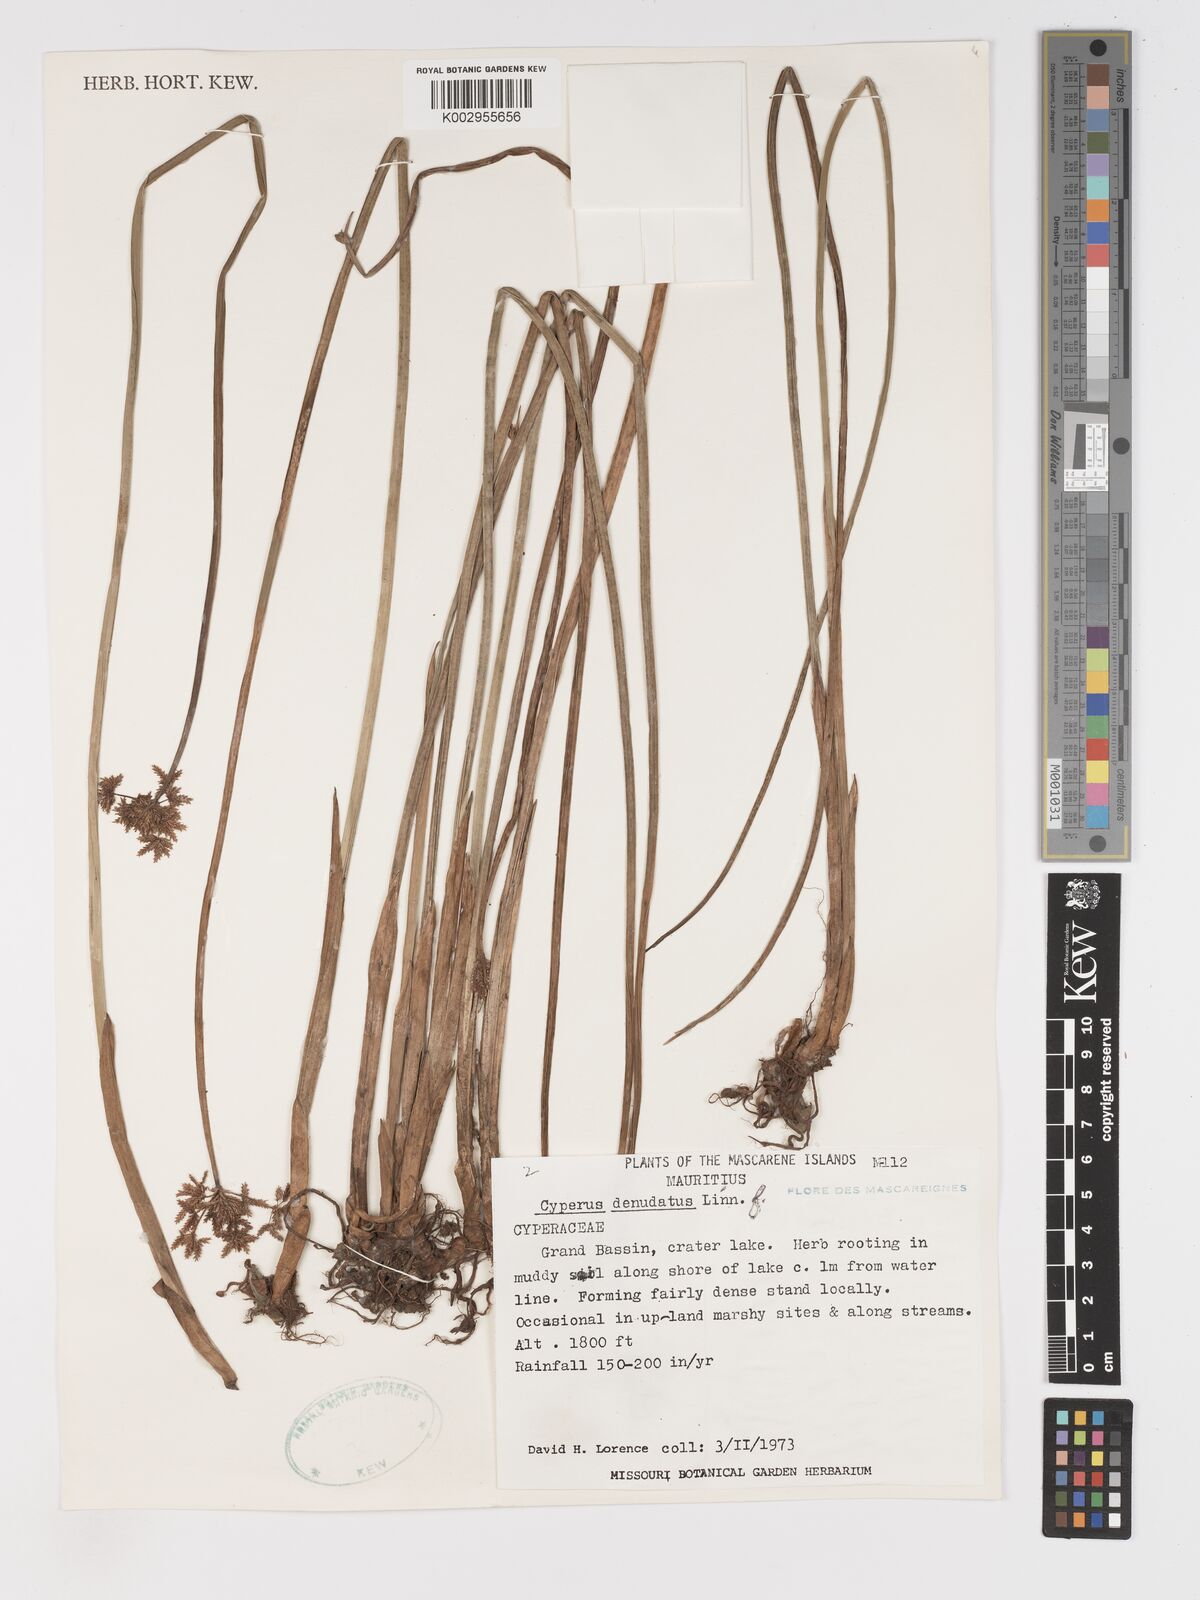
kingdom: Plantae
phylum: Tracheophyta
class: Liliopsida
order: Poales
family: Cyperaceae
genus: Cyperus
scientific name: Cyperus denudatus
